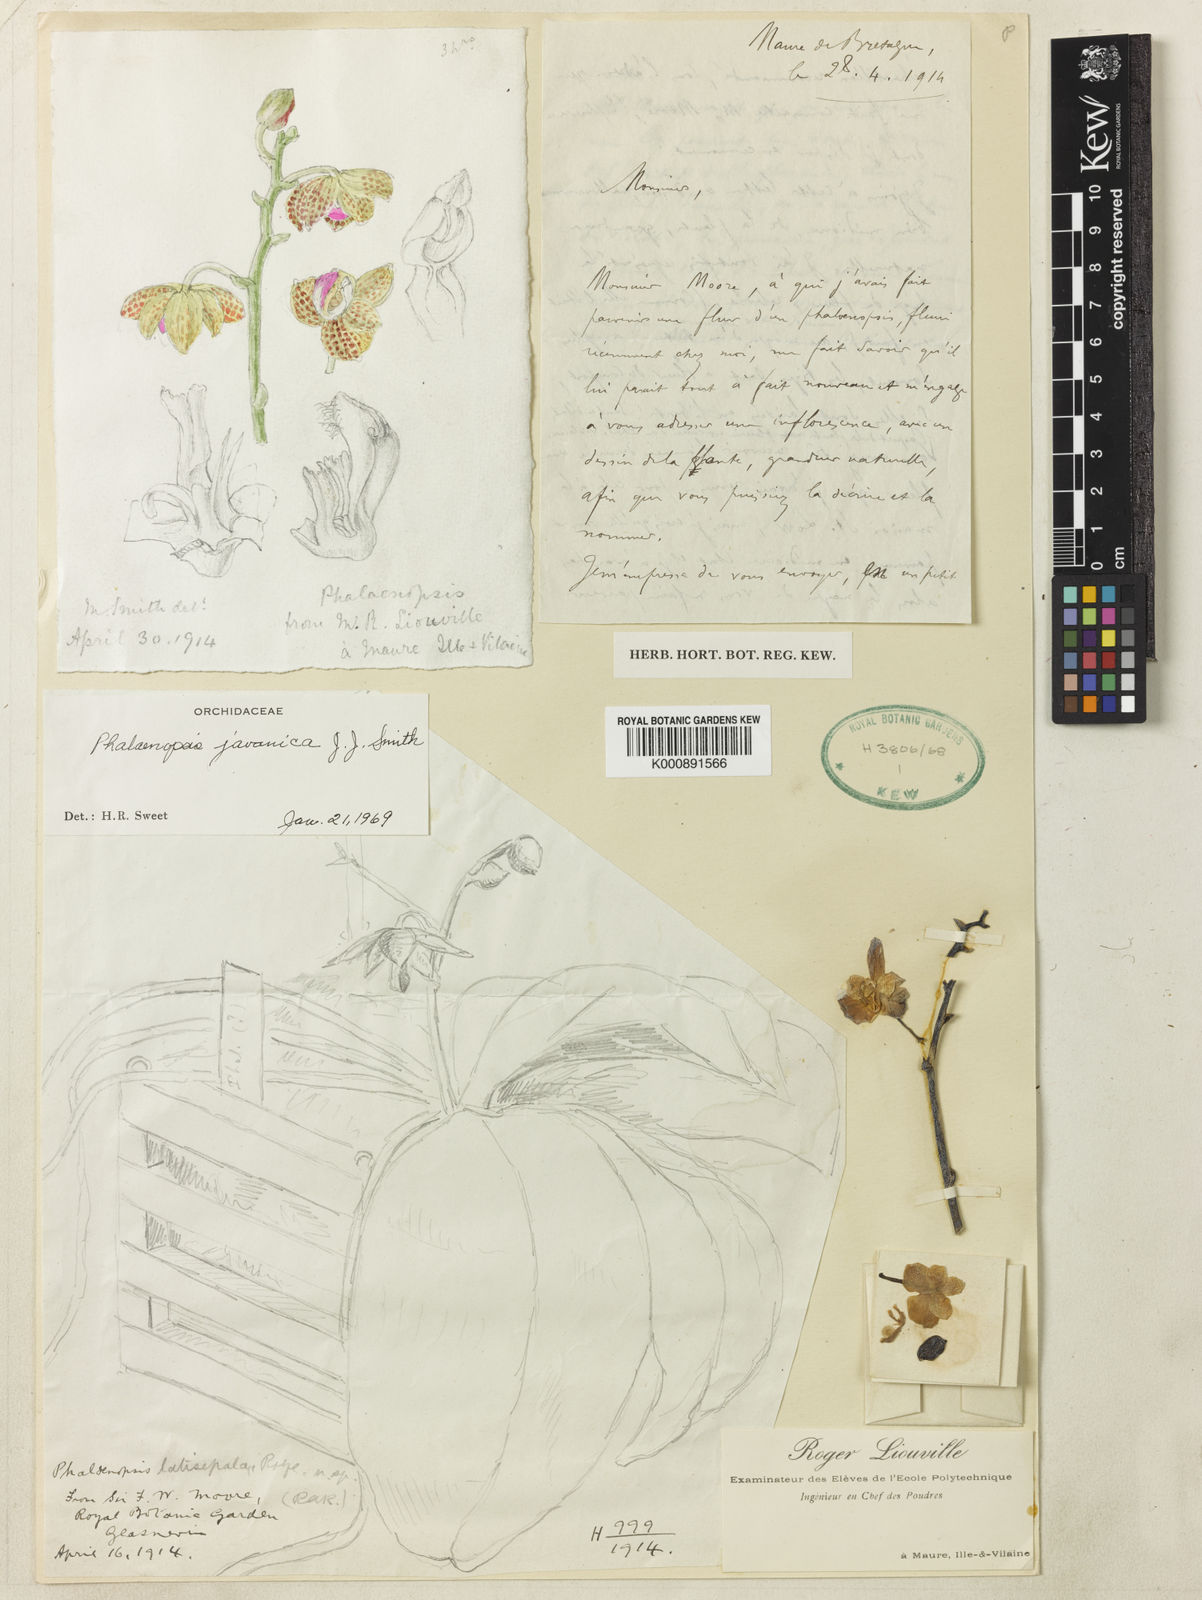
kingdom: Plantae
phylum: Tracheophyta
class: Liliopsida
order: Asparagales
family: Orchidaceae
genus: Phalaenopsis
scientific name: Phalaenopsis javanica
